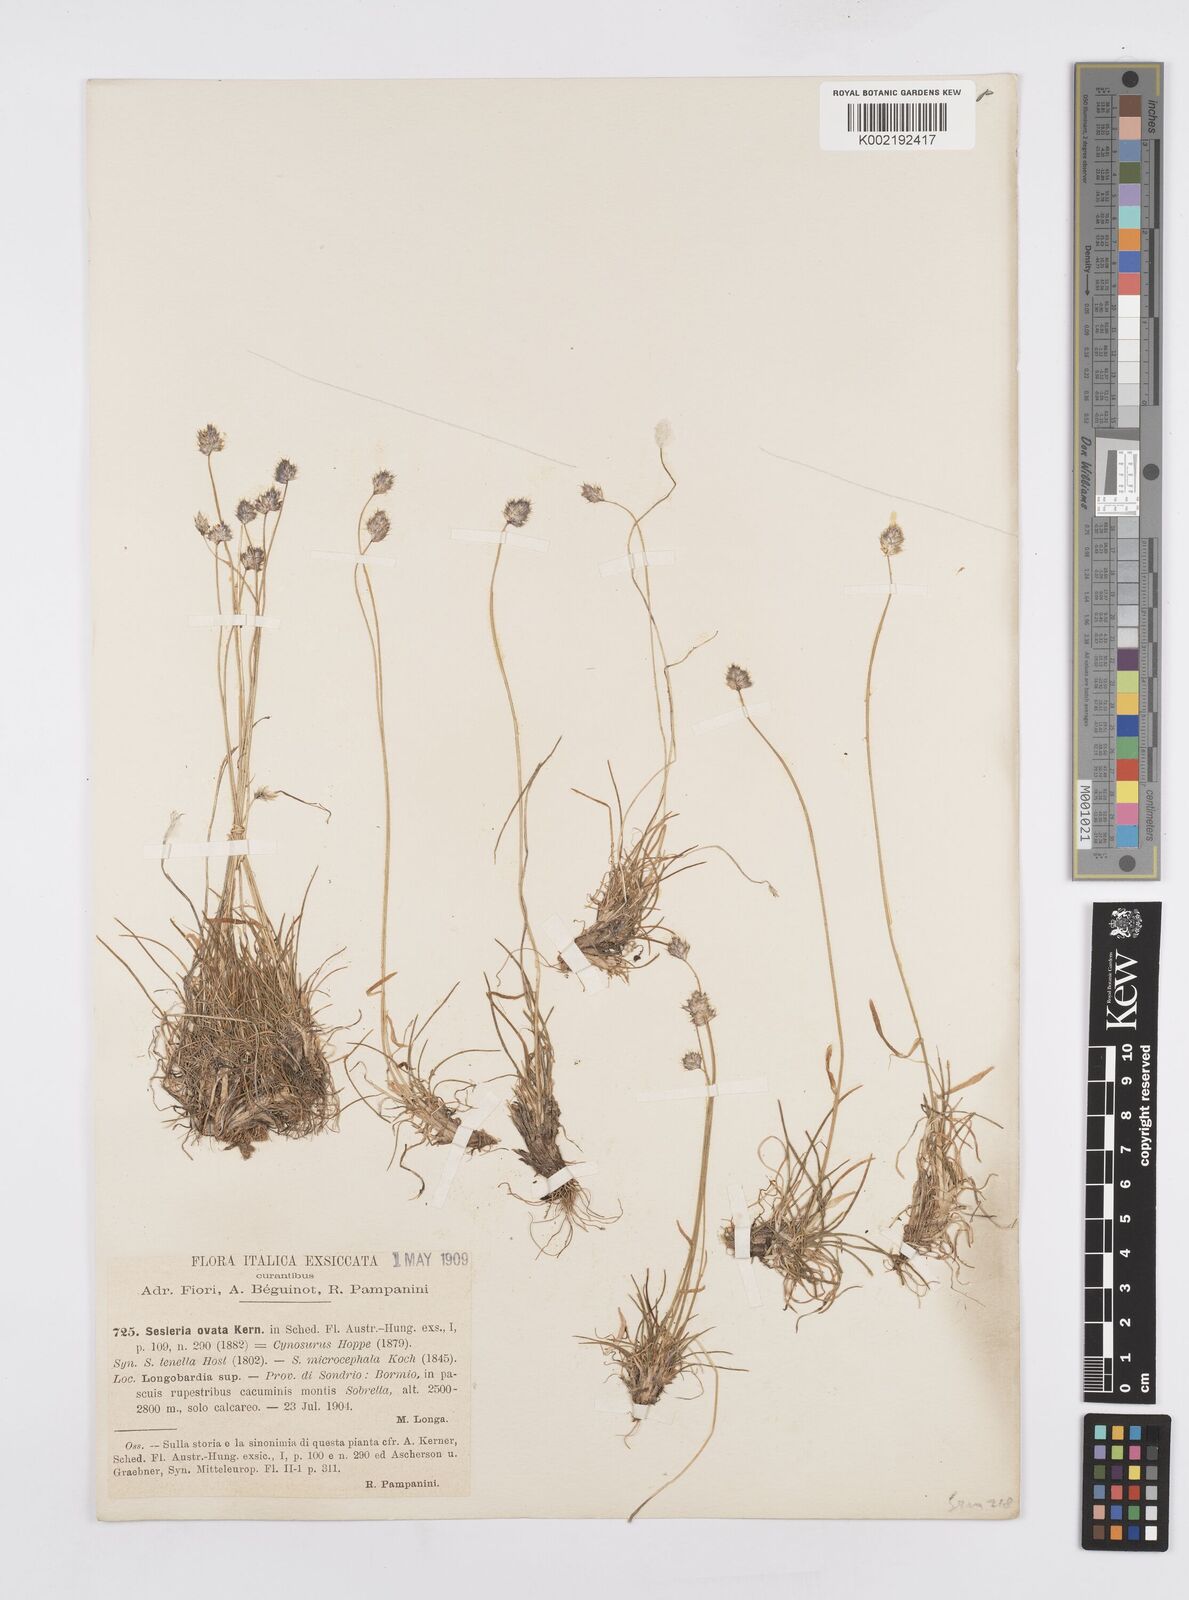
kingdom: Plantae
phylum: Tracheophyta
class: Liliopsida
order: Poales
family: Poaceae
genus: Psilathera
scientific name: Psilathera ovata
